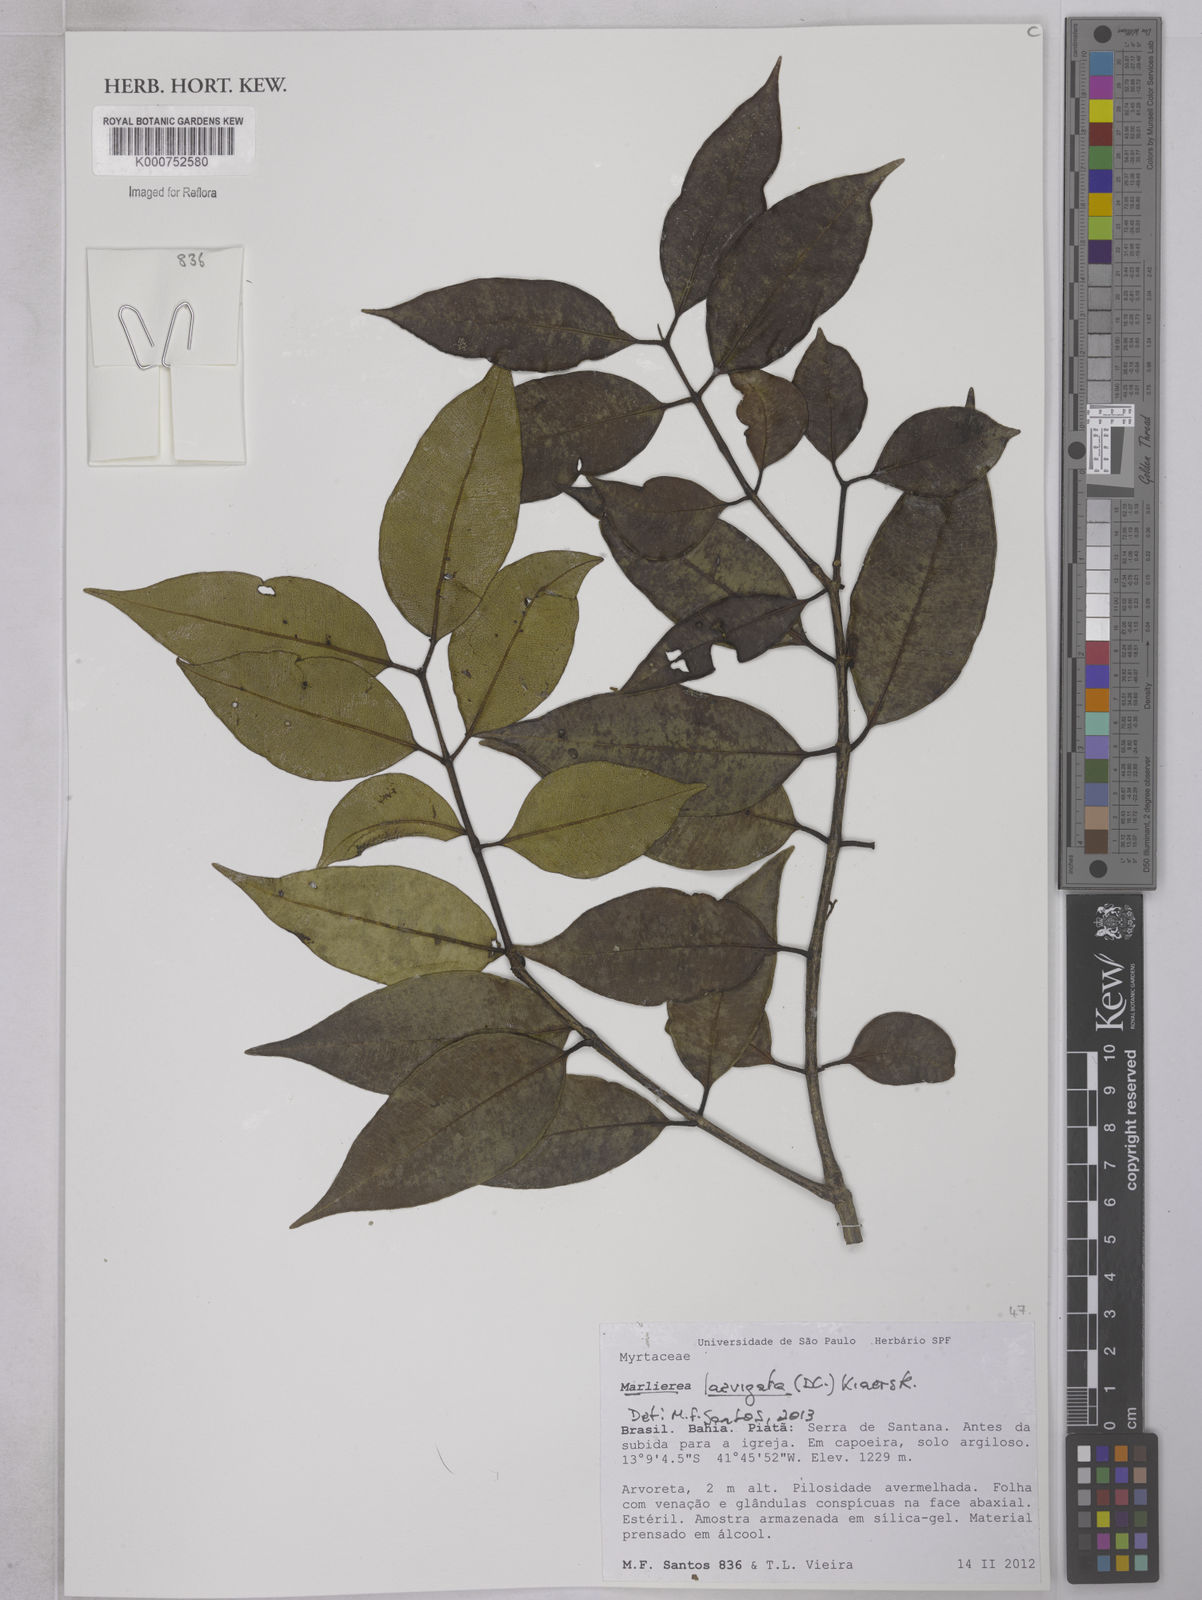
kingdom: Plantae
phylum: Tracheophyta
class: Magnoliopsida
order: Myrtales
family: Myrtaceae
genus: Myrcia
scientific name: Myrcia multipunctata
